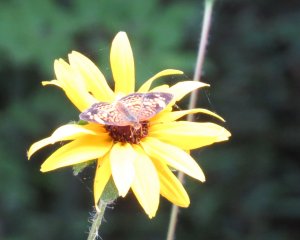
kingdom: Animalia
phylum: Arthropoda
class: Insecta
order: Lepidoptera
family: Nymphalidae
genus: Phyciodes
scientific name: Phyciodes tharos
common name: Pearl Crescent
